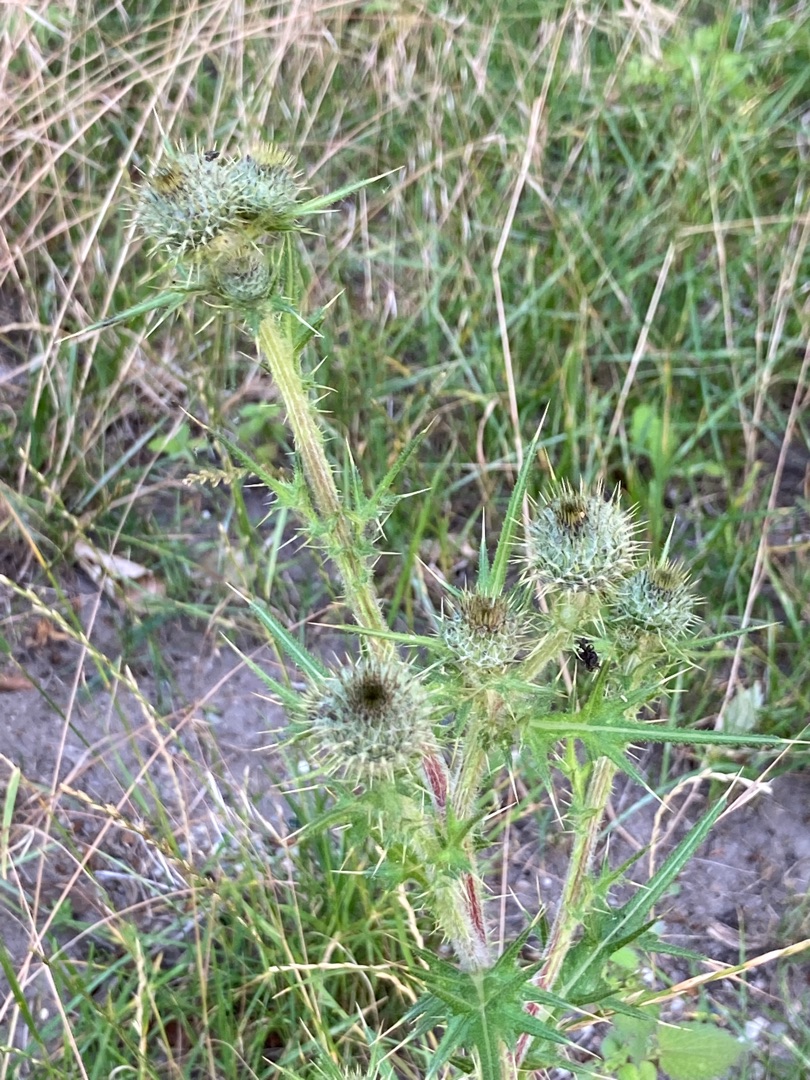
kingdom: Plantae
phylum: Tracheophyta
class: Magnoliopsida
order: Asterales
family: Asteraceae
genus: Cirsium
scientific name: Cirsium vulgare
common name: Horse-tidsel
